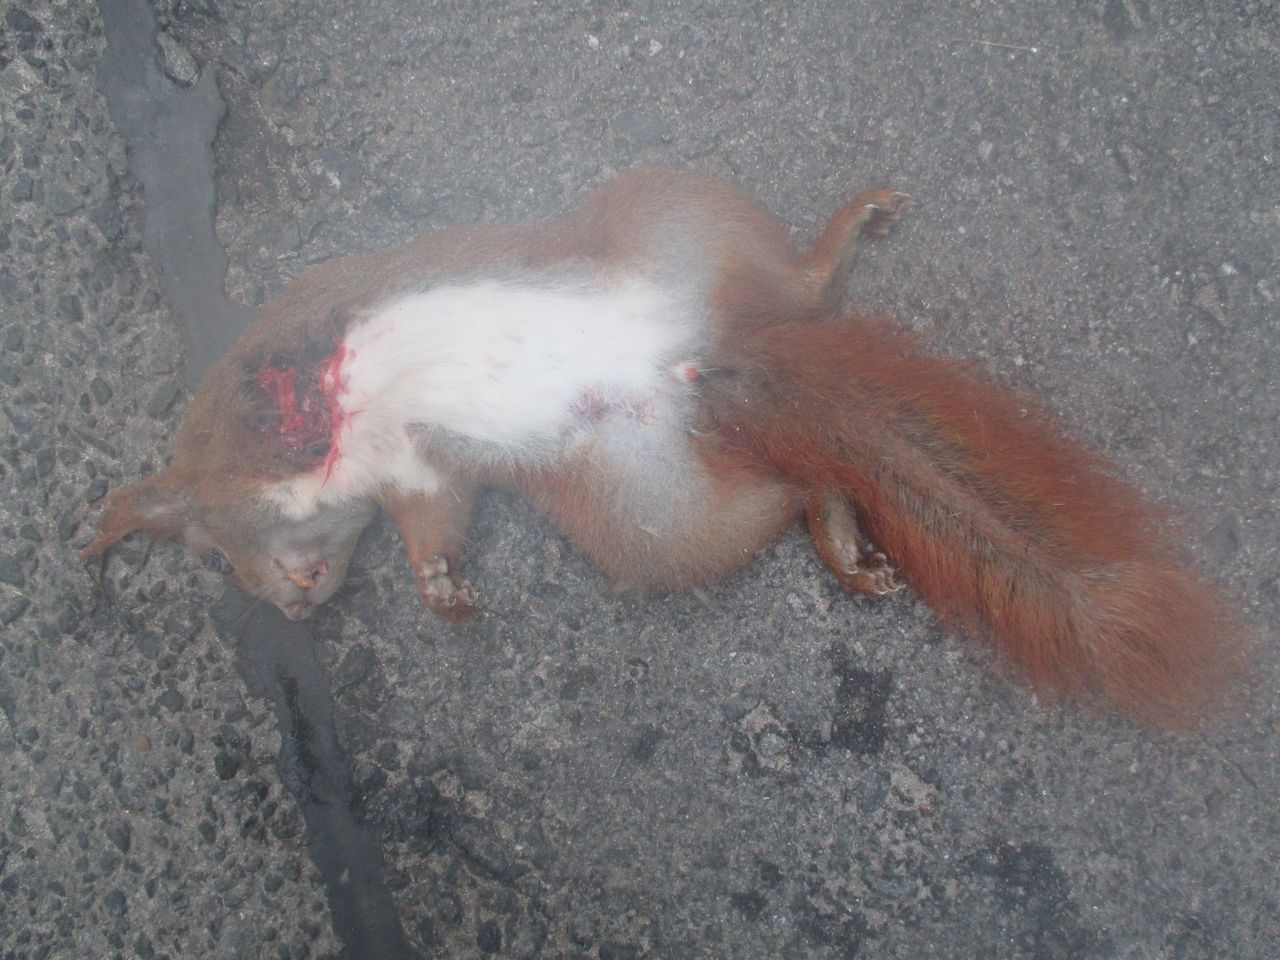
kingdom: Animalia
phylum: Chordata
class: Mammalia
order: Rodentia
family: Sciuridae
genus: Sciurus
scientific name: Sciurus vulgaris
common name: Eurasian red squirrel
